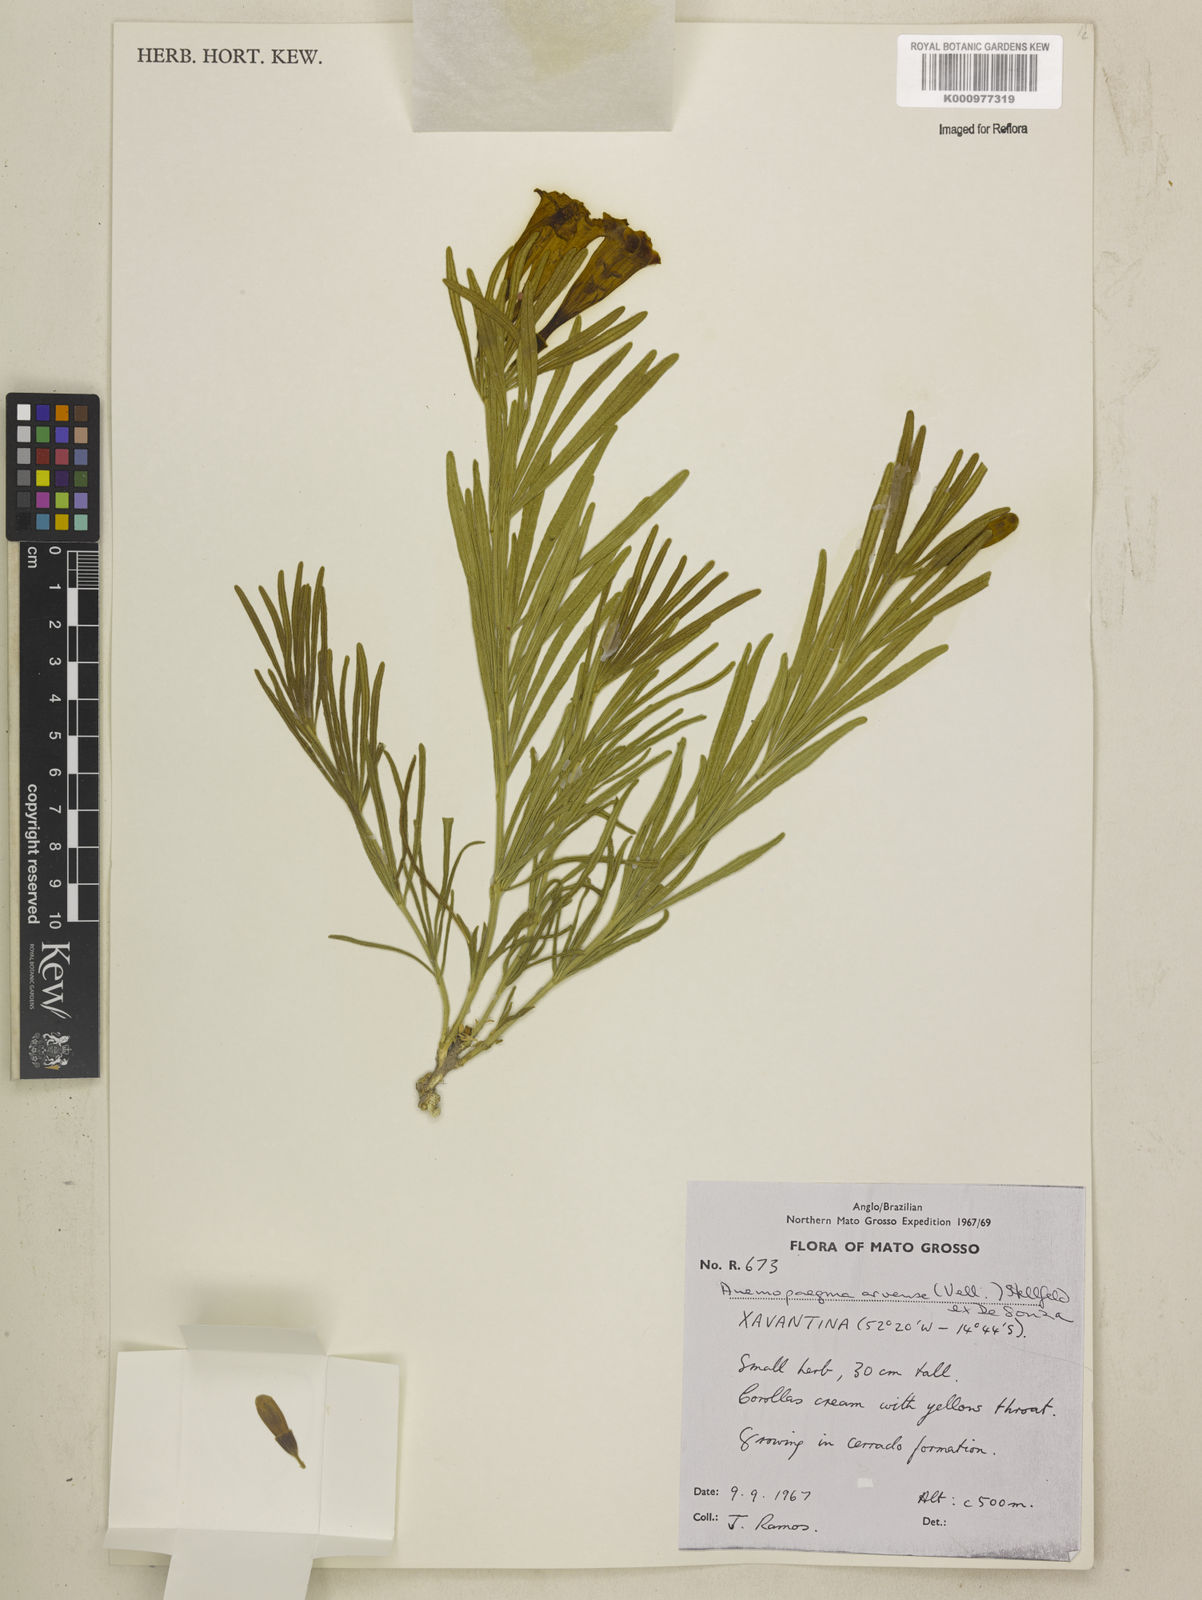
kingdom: Plantae
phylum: Tracheophyta
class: Magnoliopsida
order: Lamiales
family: Bignoniaceae
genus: Anemopaegma
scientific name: Anemopaegma arvense
